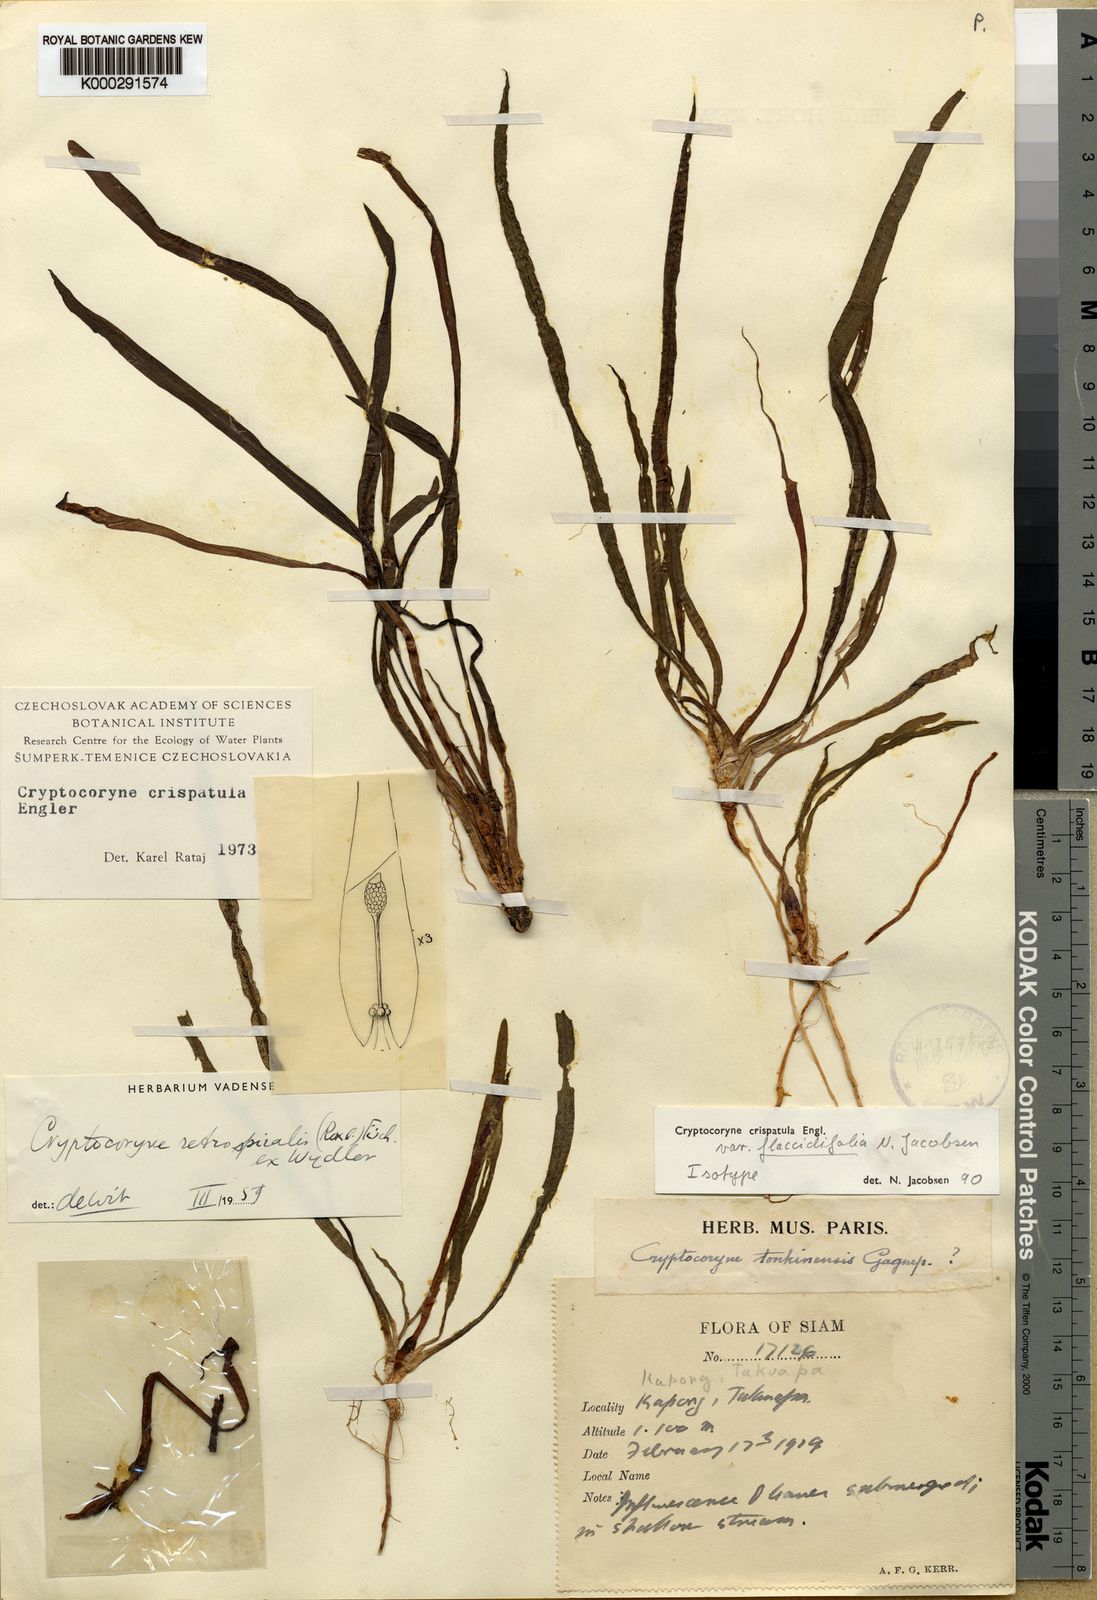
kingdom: Plantae
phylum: Tracheophyta
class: Liliopsida
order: Alismatales
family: Araceae
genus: Cryptocoryne
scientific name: Cryptocoryne crispatula
